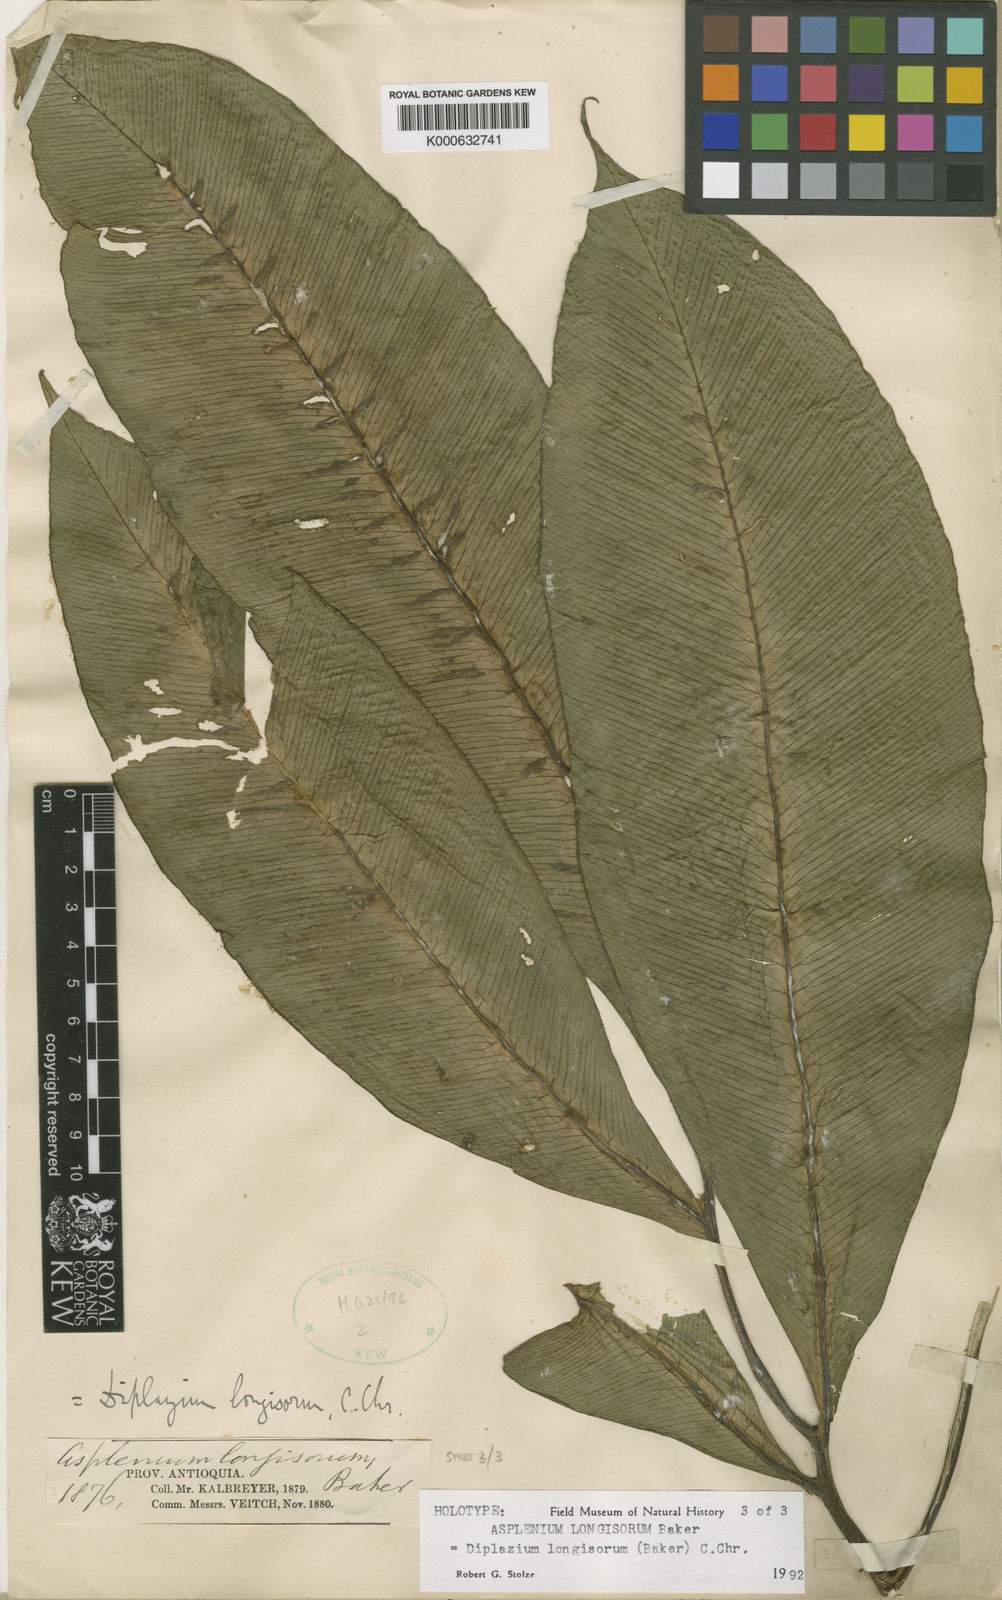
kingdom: Plantae
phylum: Tracheophyta
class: Polypodiopsida
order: Polypodiales
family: Desmophlebiaceae
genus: Desmophlebium
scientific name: Desmophlebium longisorum
